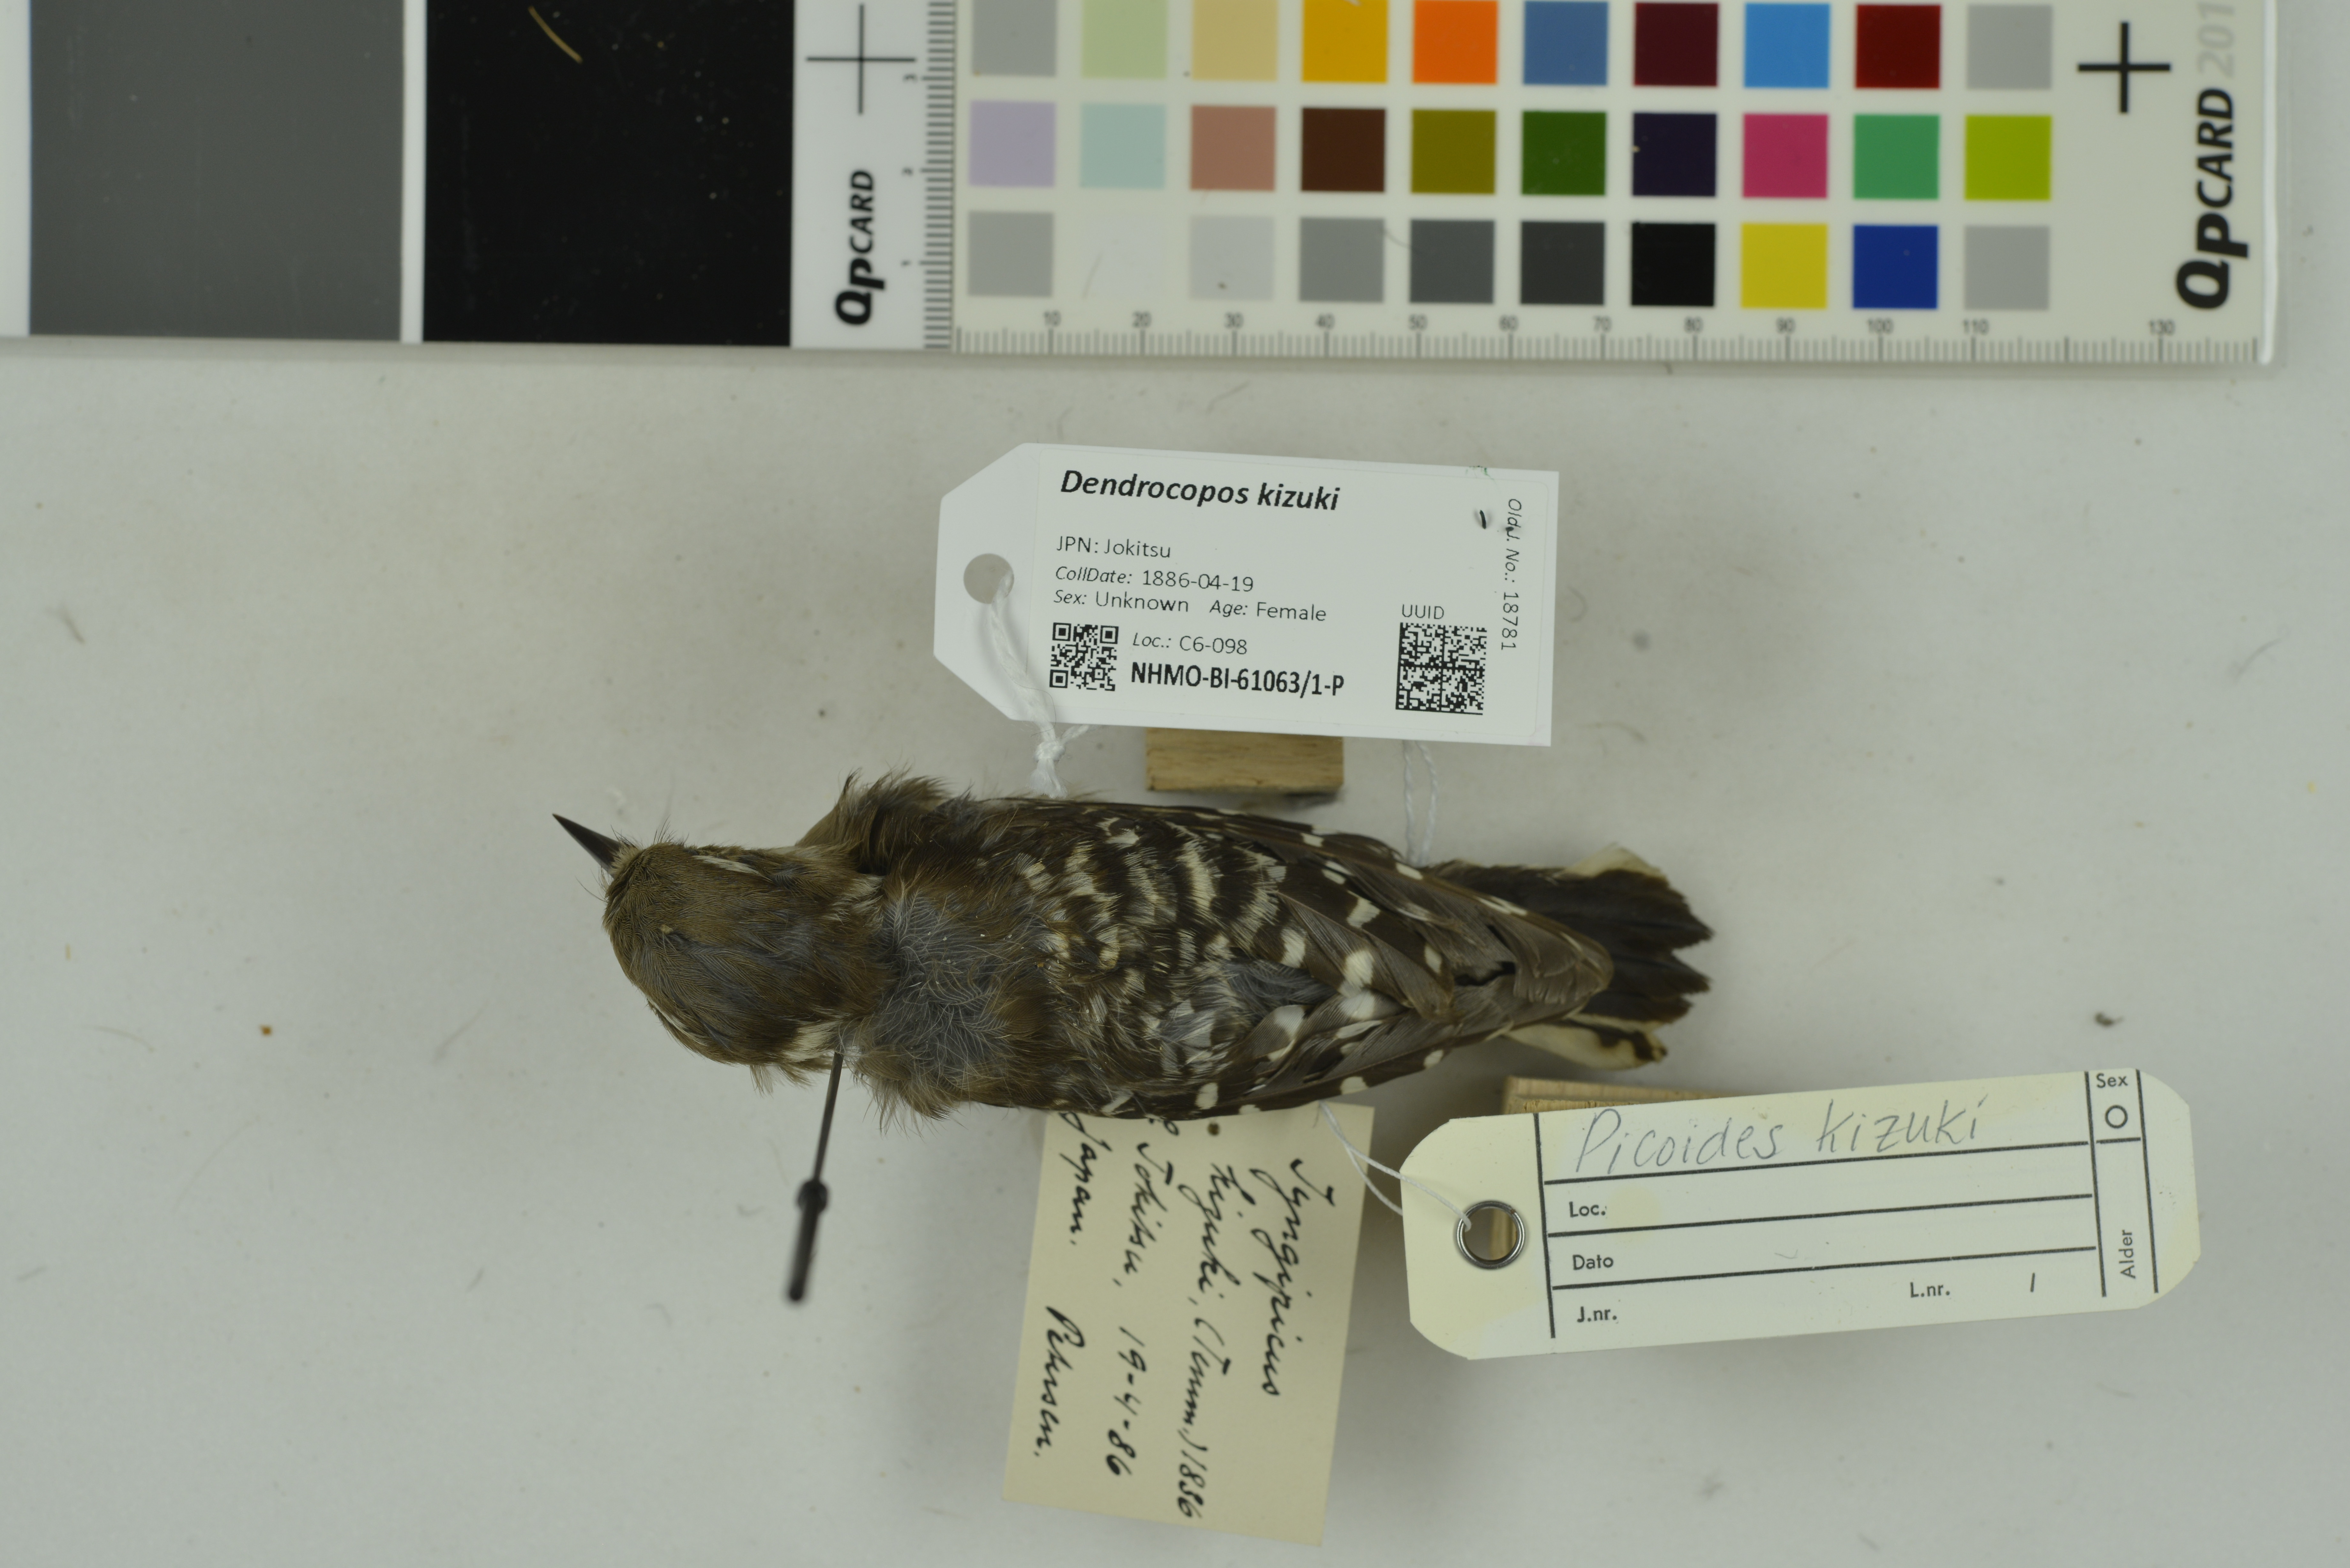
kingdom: Animalia
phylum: Chordata
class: Aves
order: Piciformes
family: Picidae
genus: Yungipicus
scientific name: Yungipicus kizuki
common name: Japanese pygmy woodpecker
